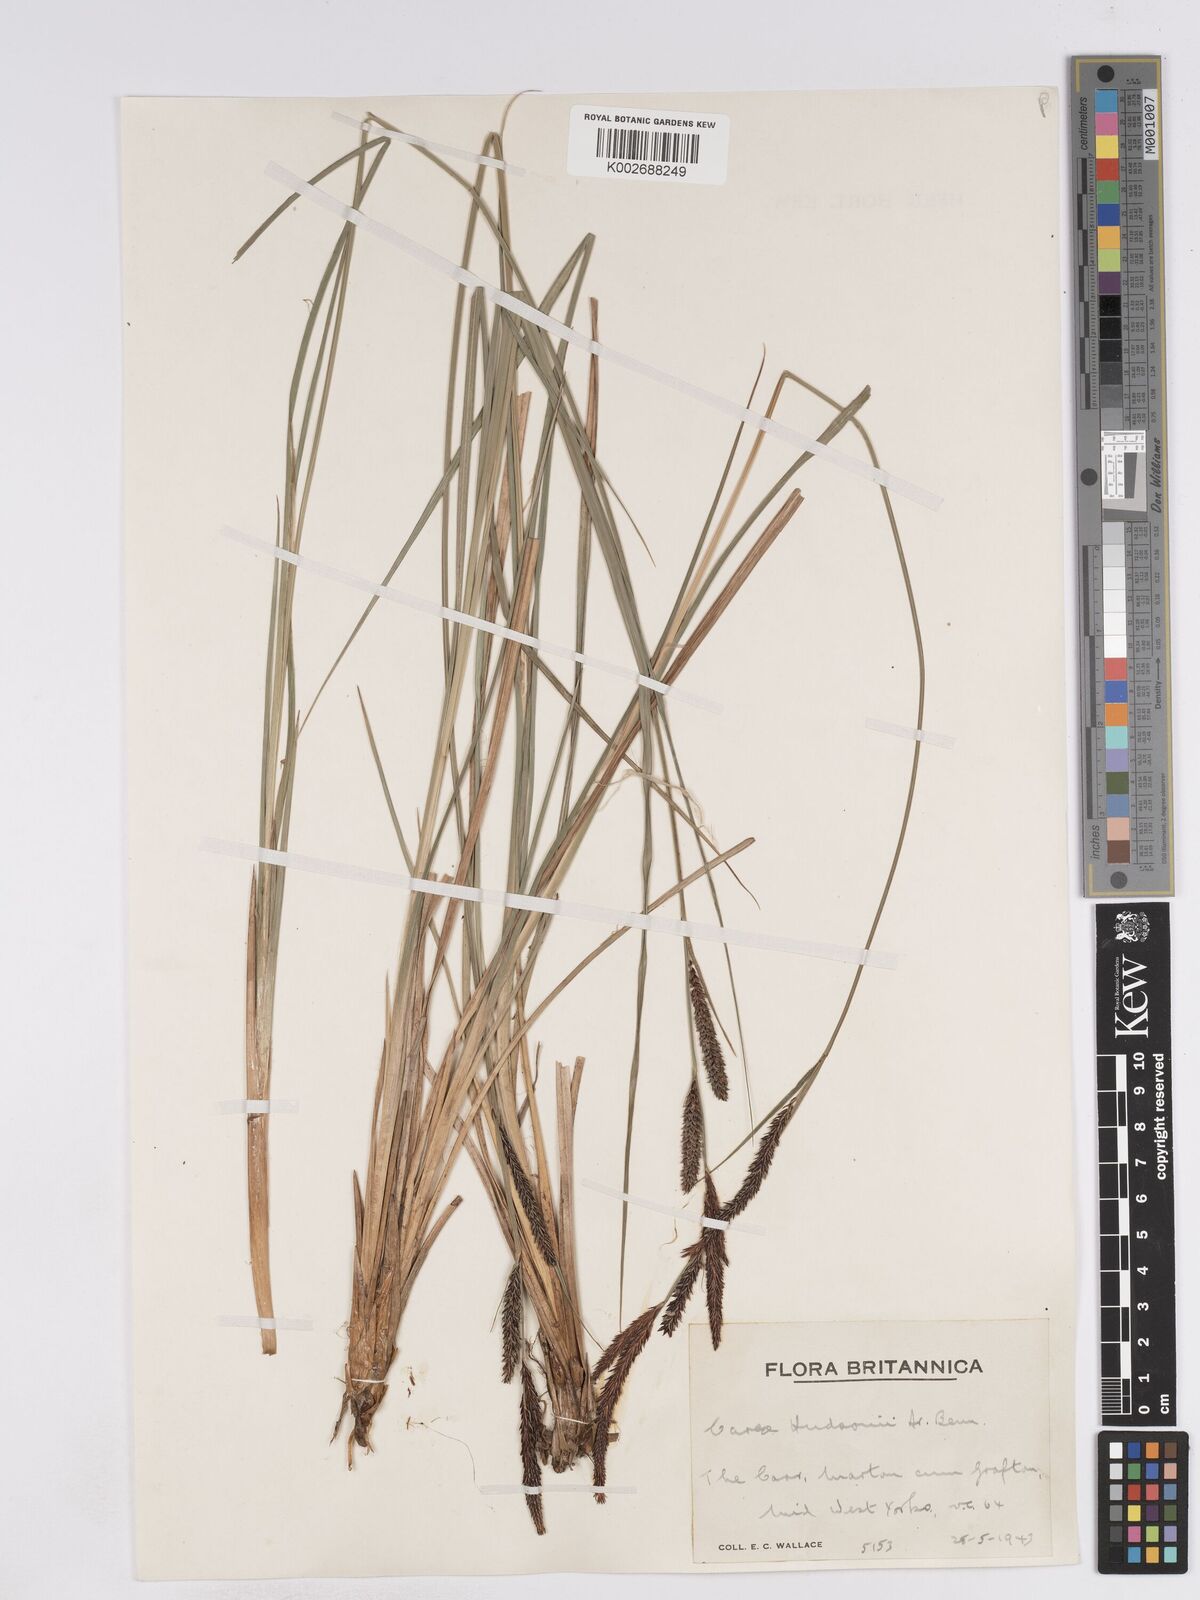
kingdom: Plantae
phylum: Tracheophyta
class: Liliopsida
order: Poales
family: Cyperaceae
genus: Carex
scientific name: Carex elata
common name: Tufted sedge
